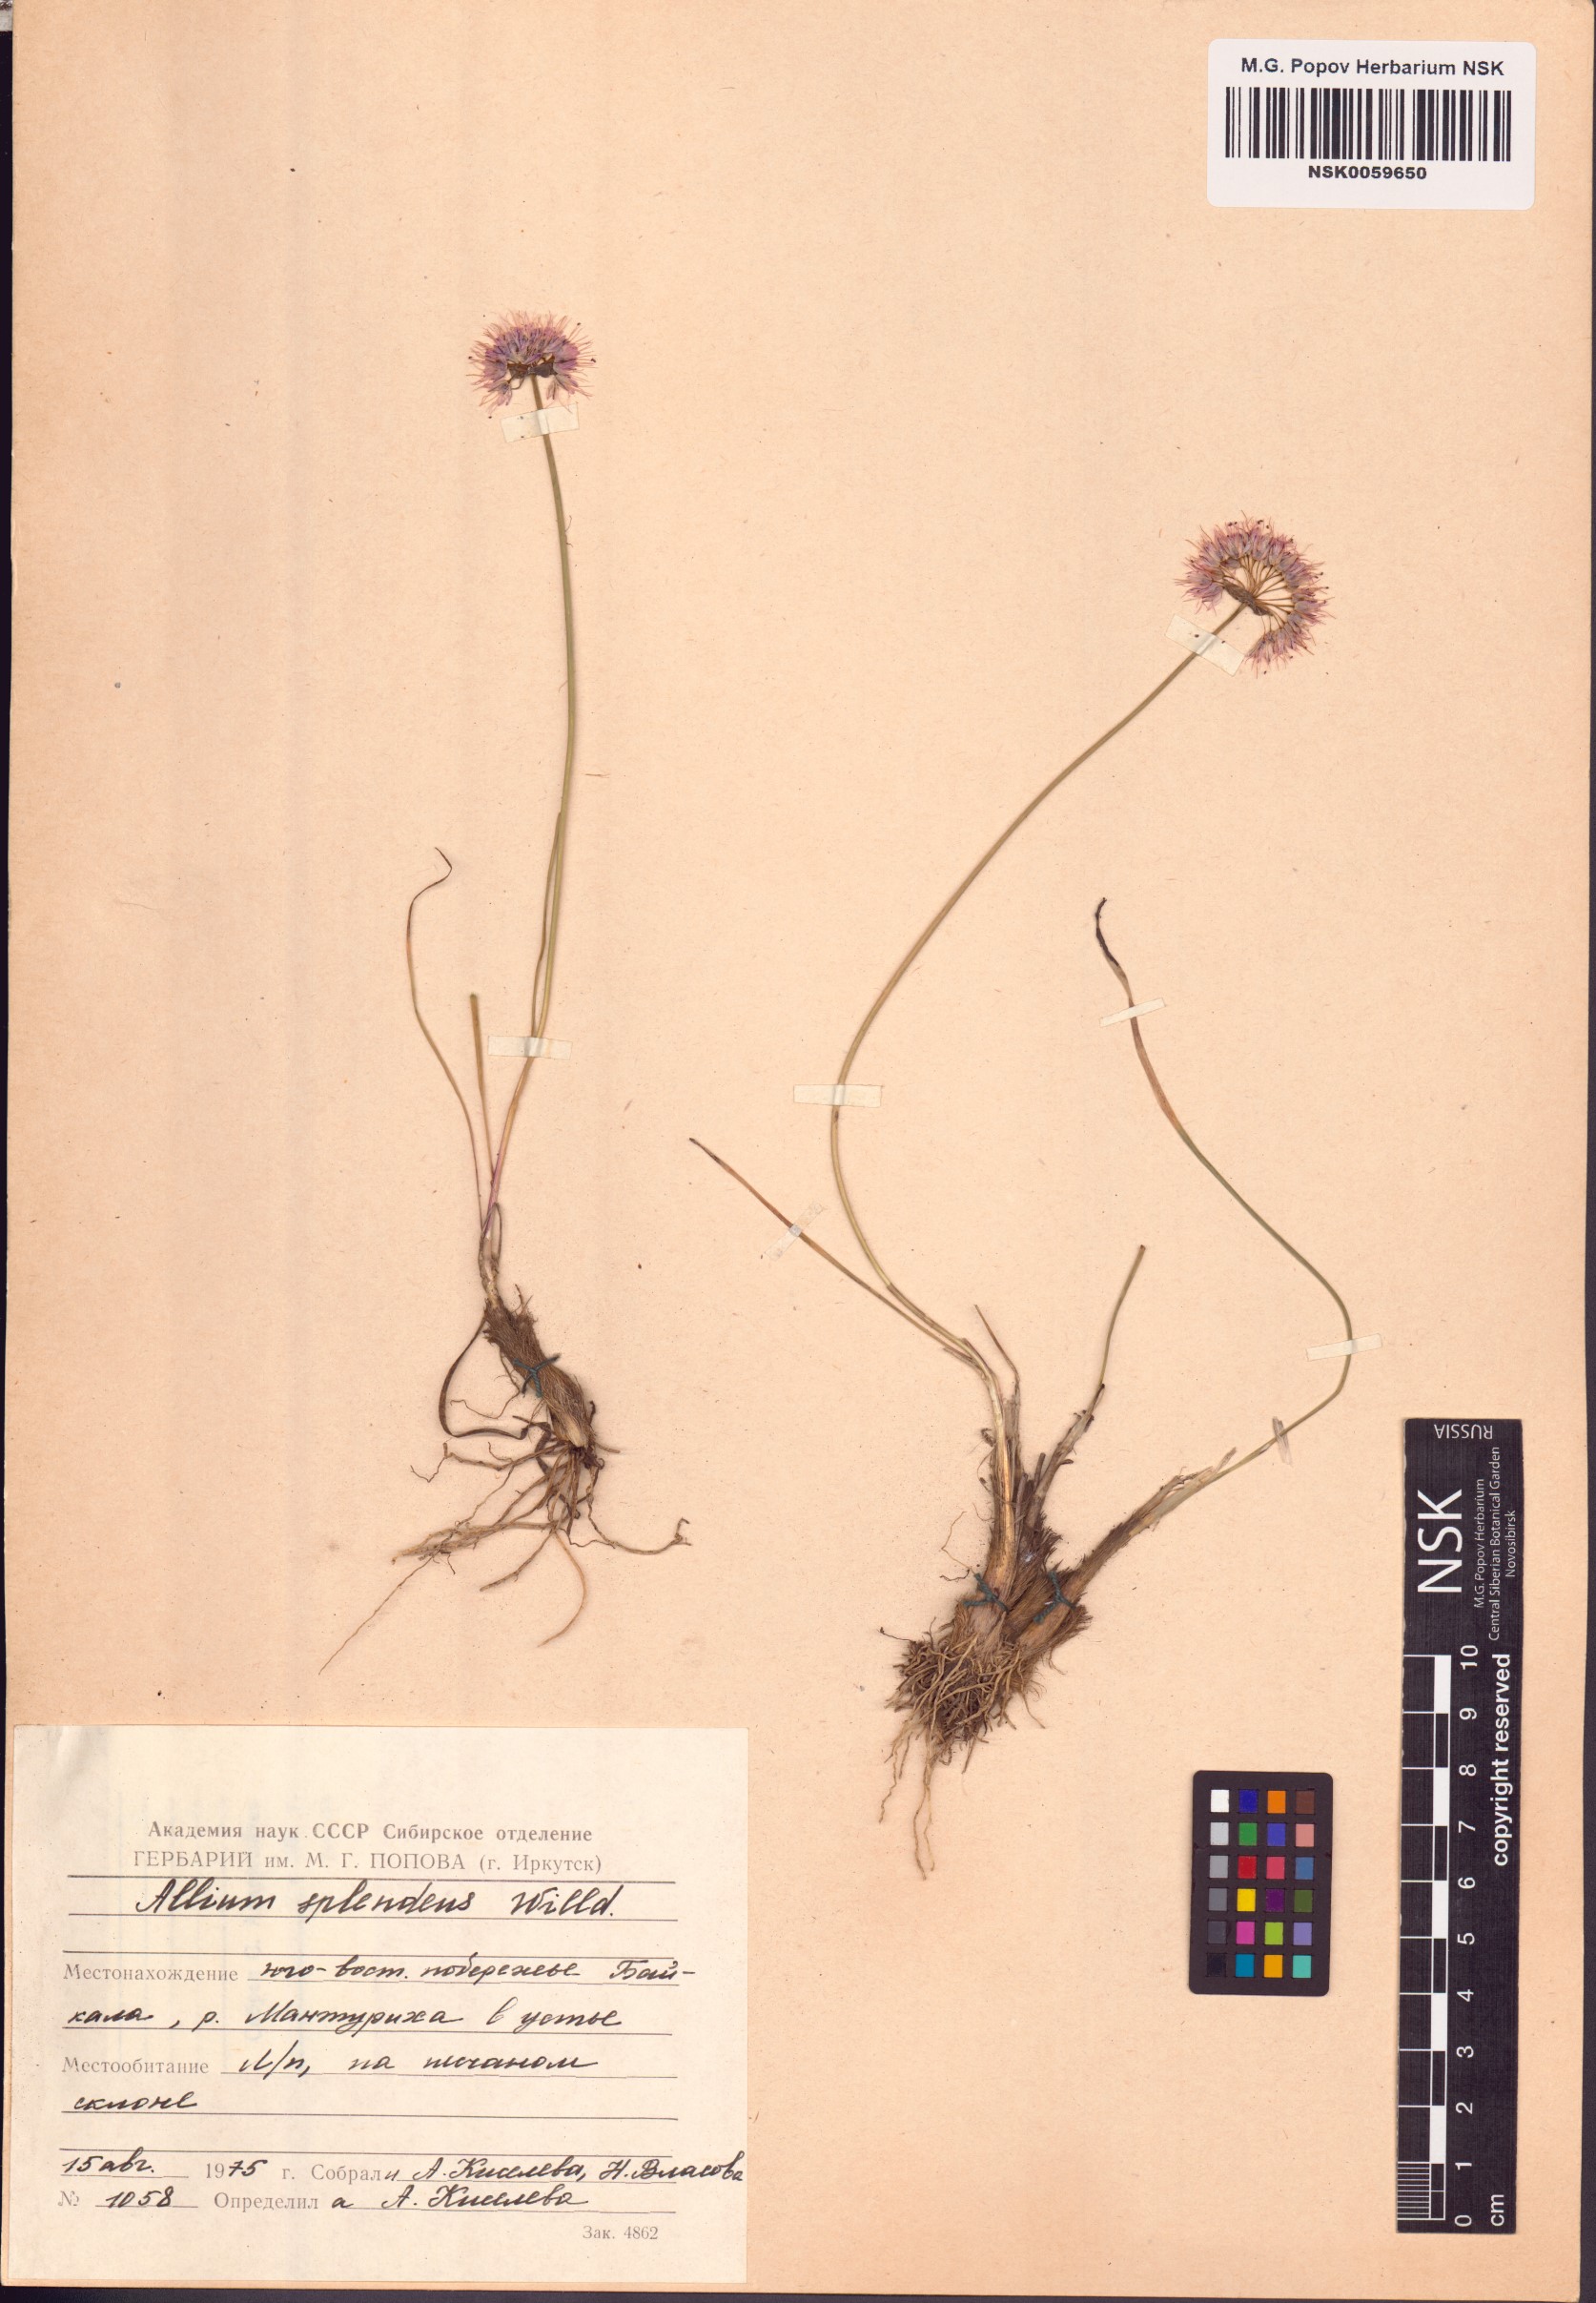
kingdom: Plantae
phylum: Tracheophyta
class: Liliopsida
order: Asparagales
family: Amaryllidaceae
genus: Allium
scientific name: Allium splendens
